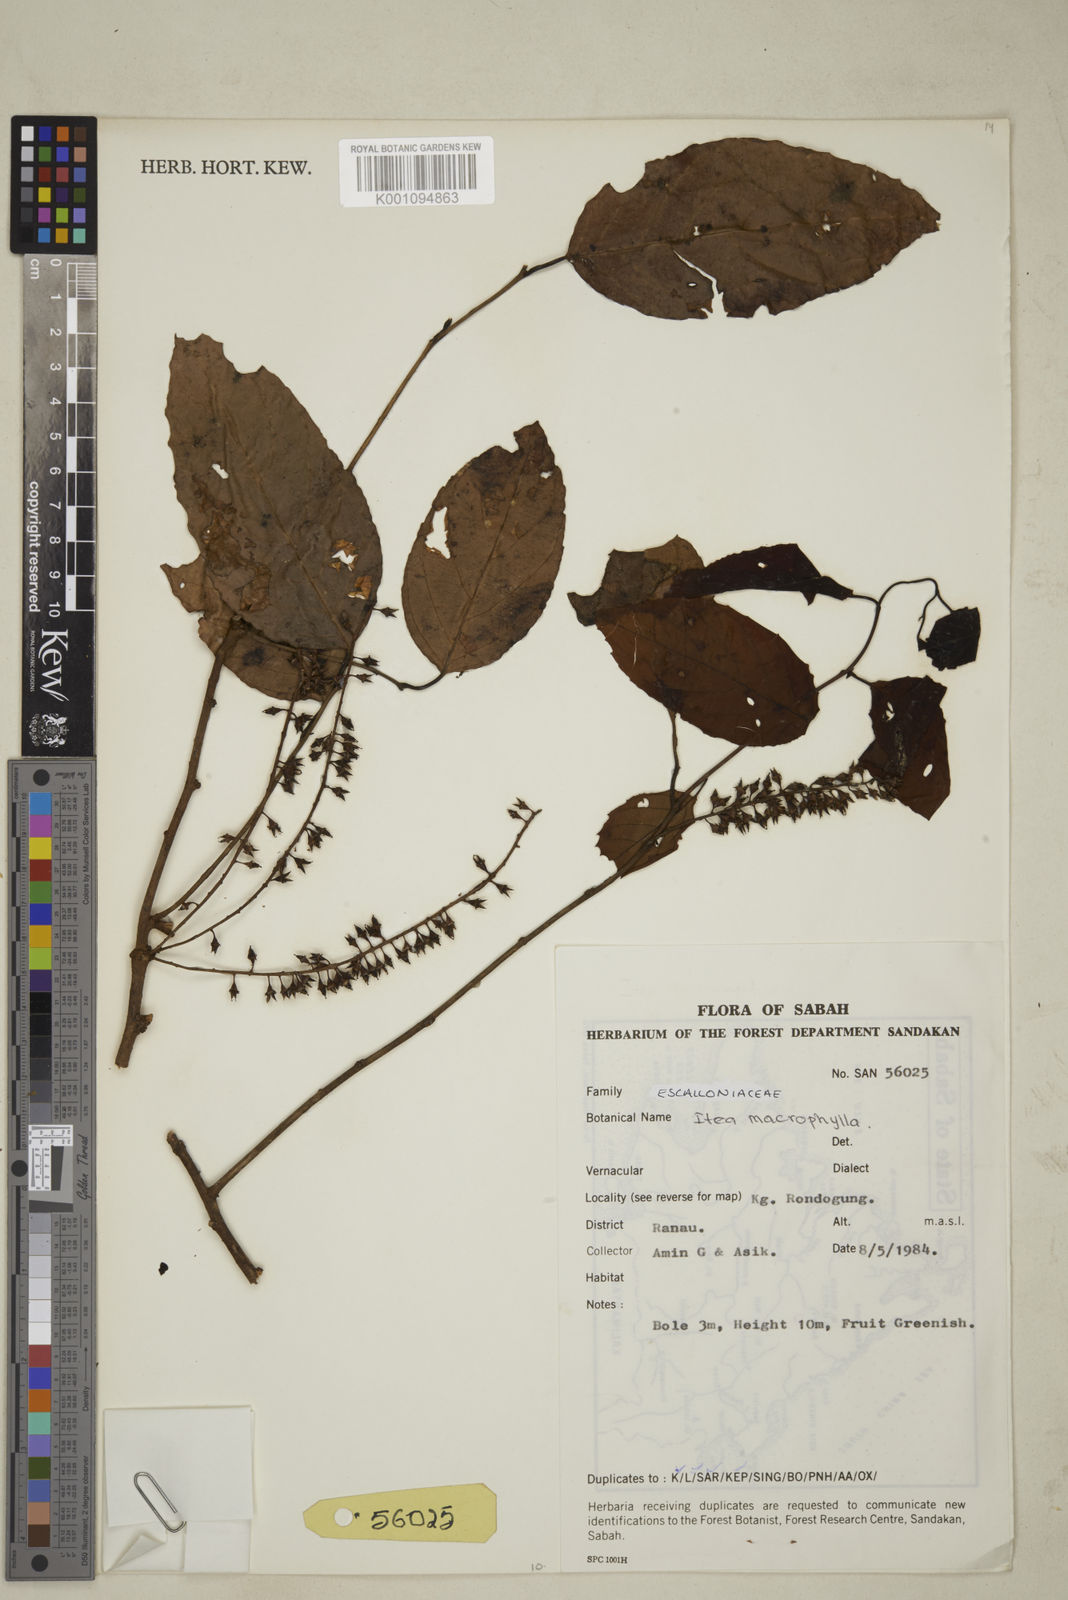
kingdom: Plantae
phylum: Tracheophyta
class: Magnoliopsida
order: Saxifragales
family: Iteaceae
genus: Itea
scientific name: Itea macrophylla
